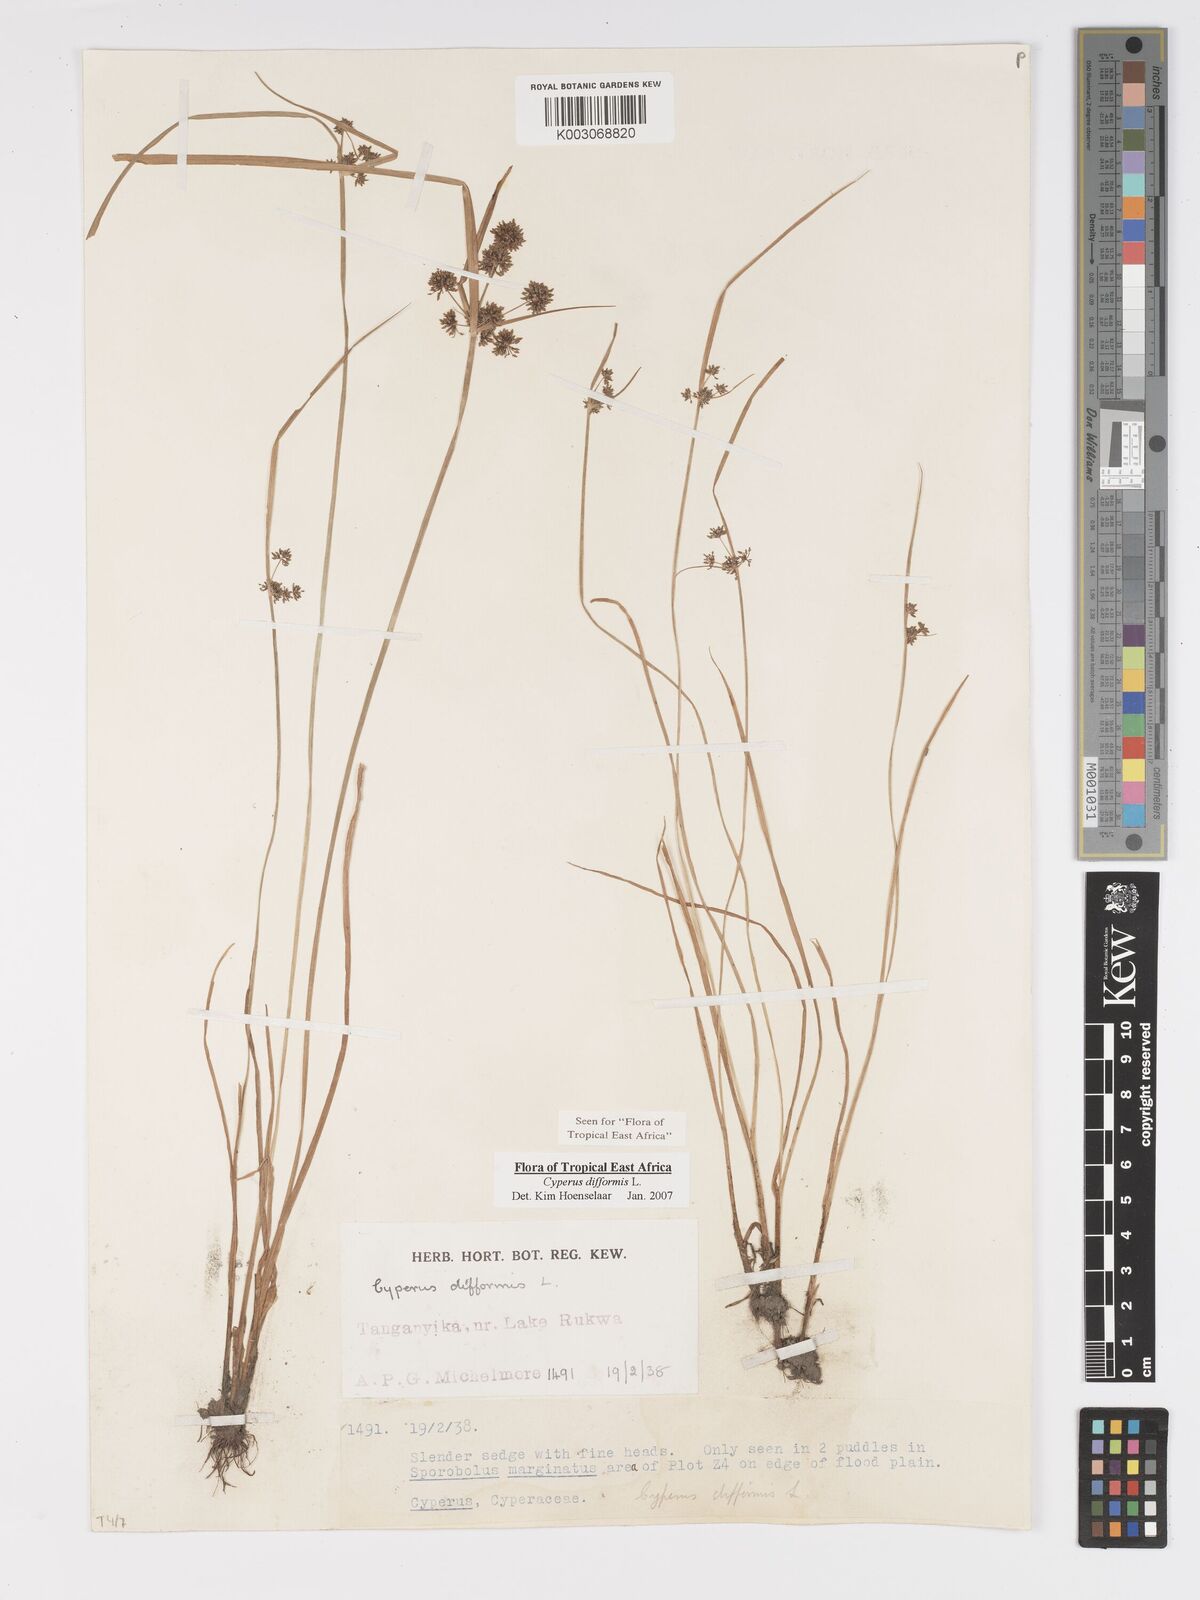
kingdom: Plantae
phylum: Tracheophyta
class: Liliopsida
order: Poales
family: Cyperaceae
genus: Cyperus
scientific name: Cyperus difformis
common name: Variable flatsedge
